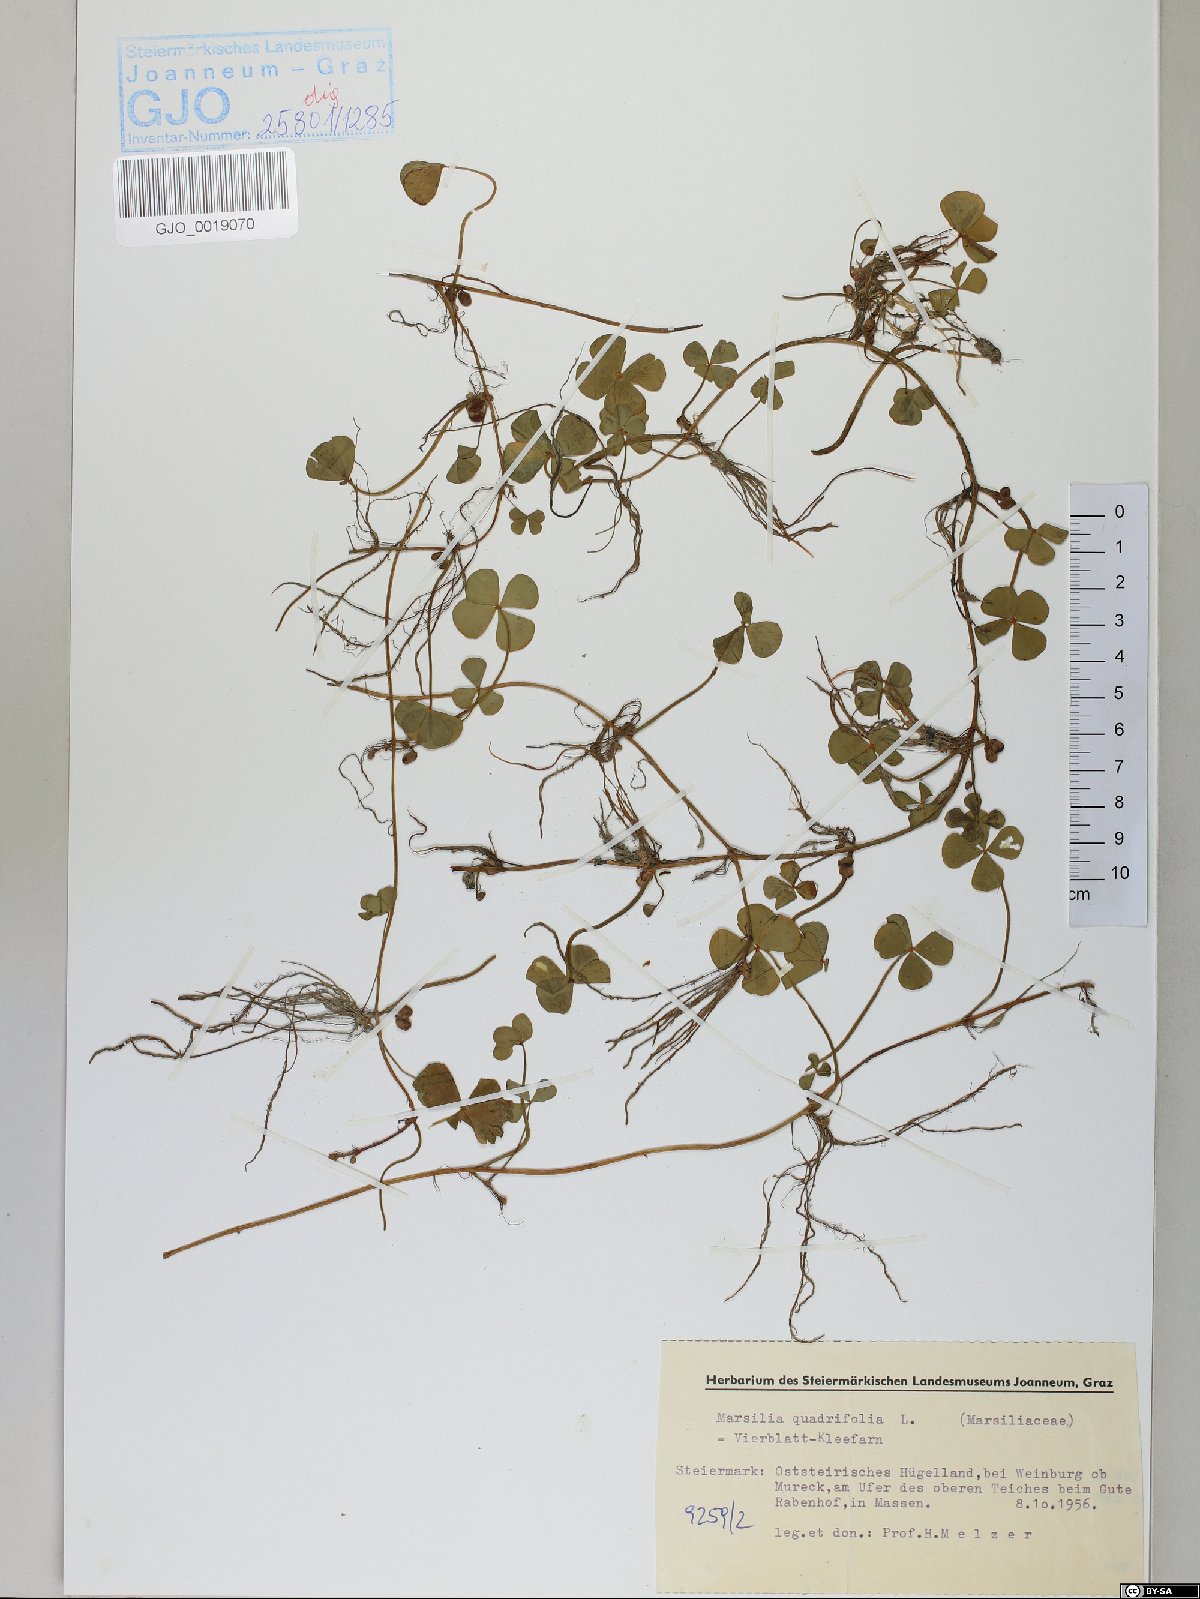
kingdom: Plantae
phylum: Tracheophyta
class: Polypodiopsida
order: Salviniales
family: Marsileaceae
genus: Marsilea
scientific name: Marsilea quadrifolia
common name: Water shamrock
